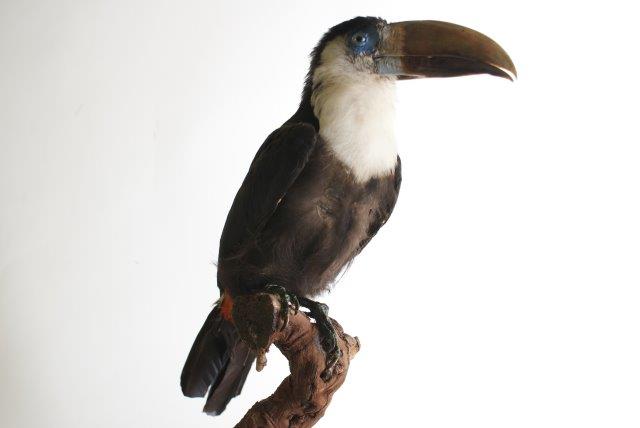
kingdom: Animalia
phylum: Chordata
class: Aves
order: Piciformes
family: Ramphastidae
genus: Ramphastos
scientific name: Ramphastos tucanus
